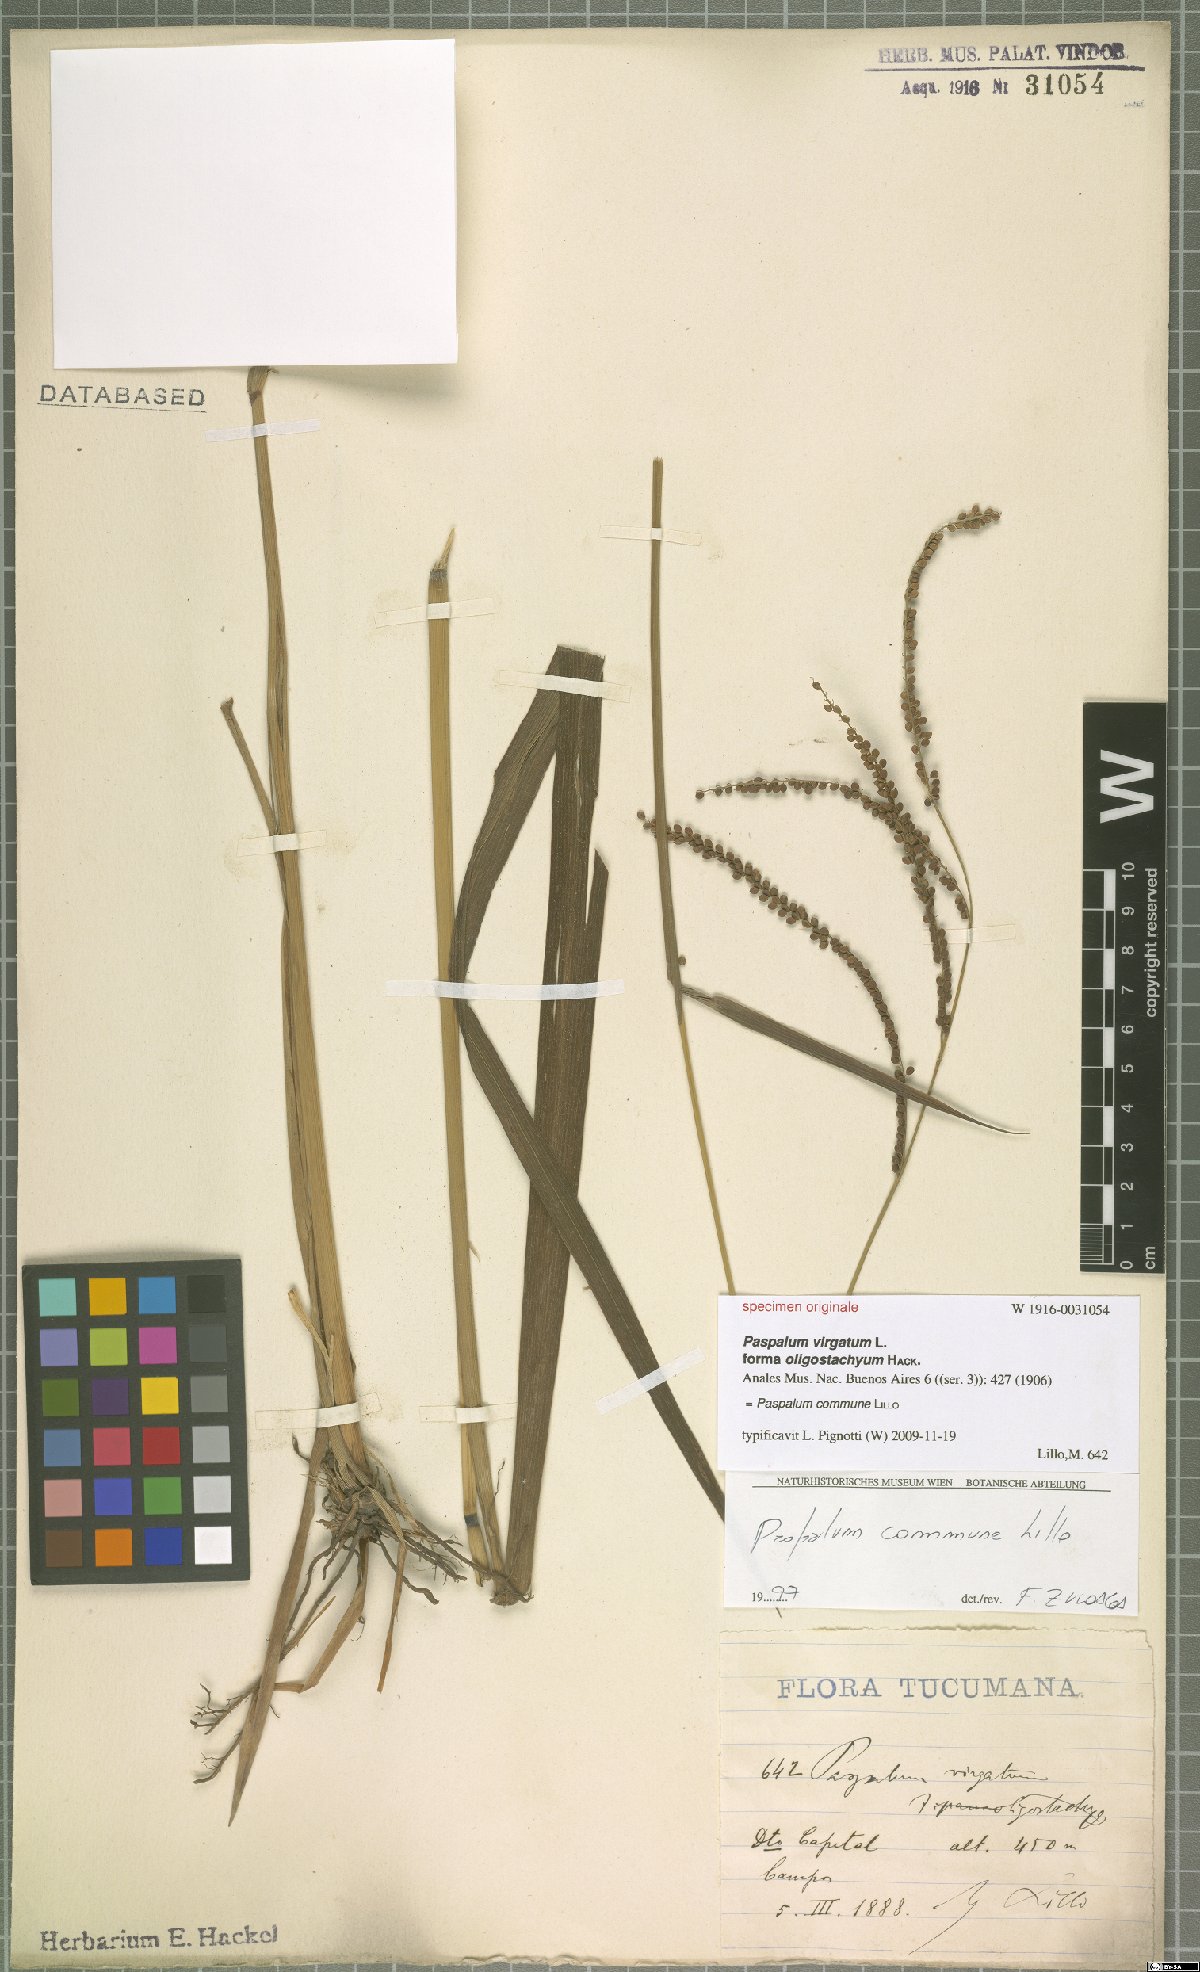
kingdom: Plantae
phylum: Tracheophyta
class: Liliopsida
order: Poales
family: Poaceae
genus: Paspalum
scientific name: Paspalum commune
